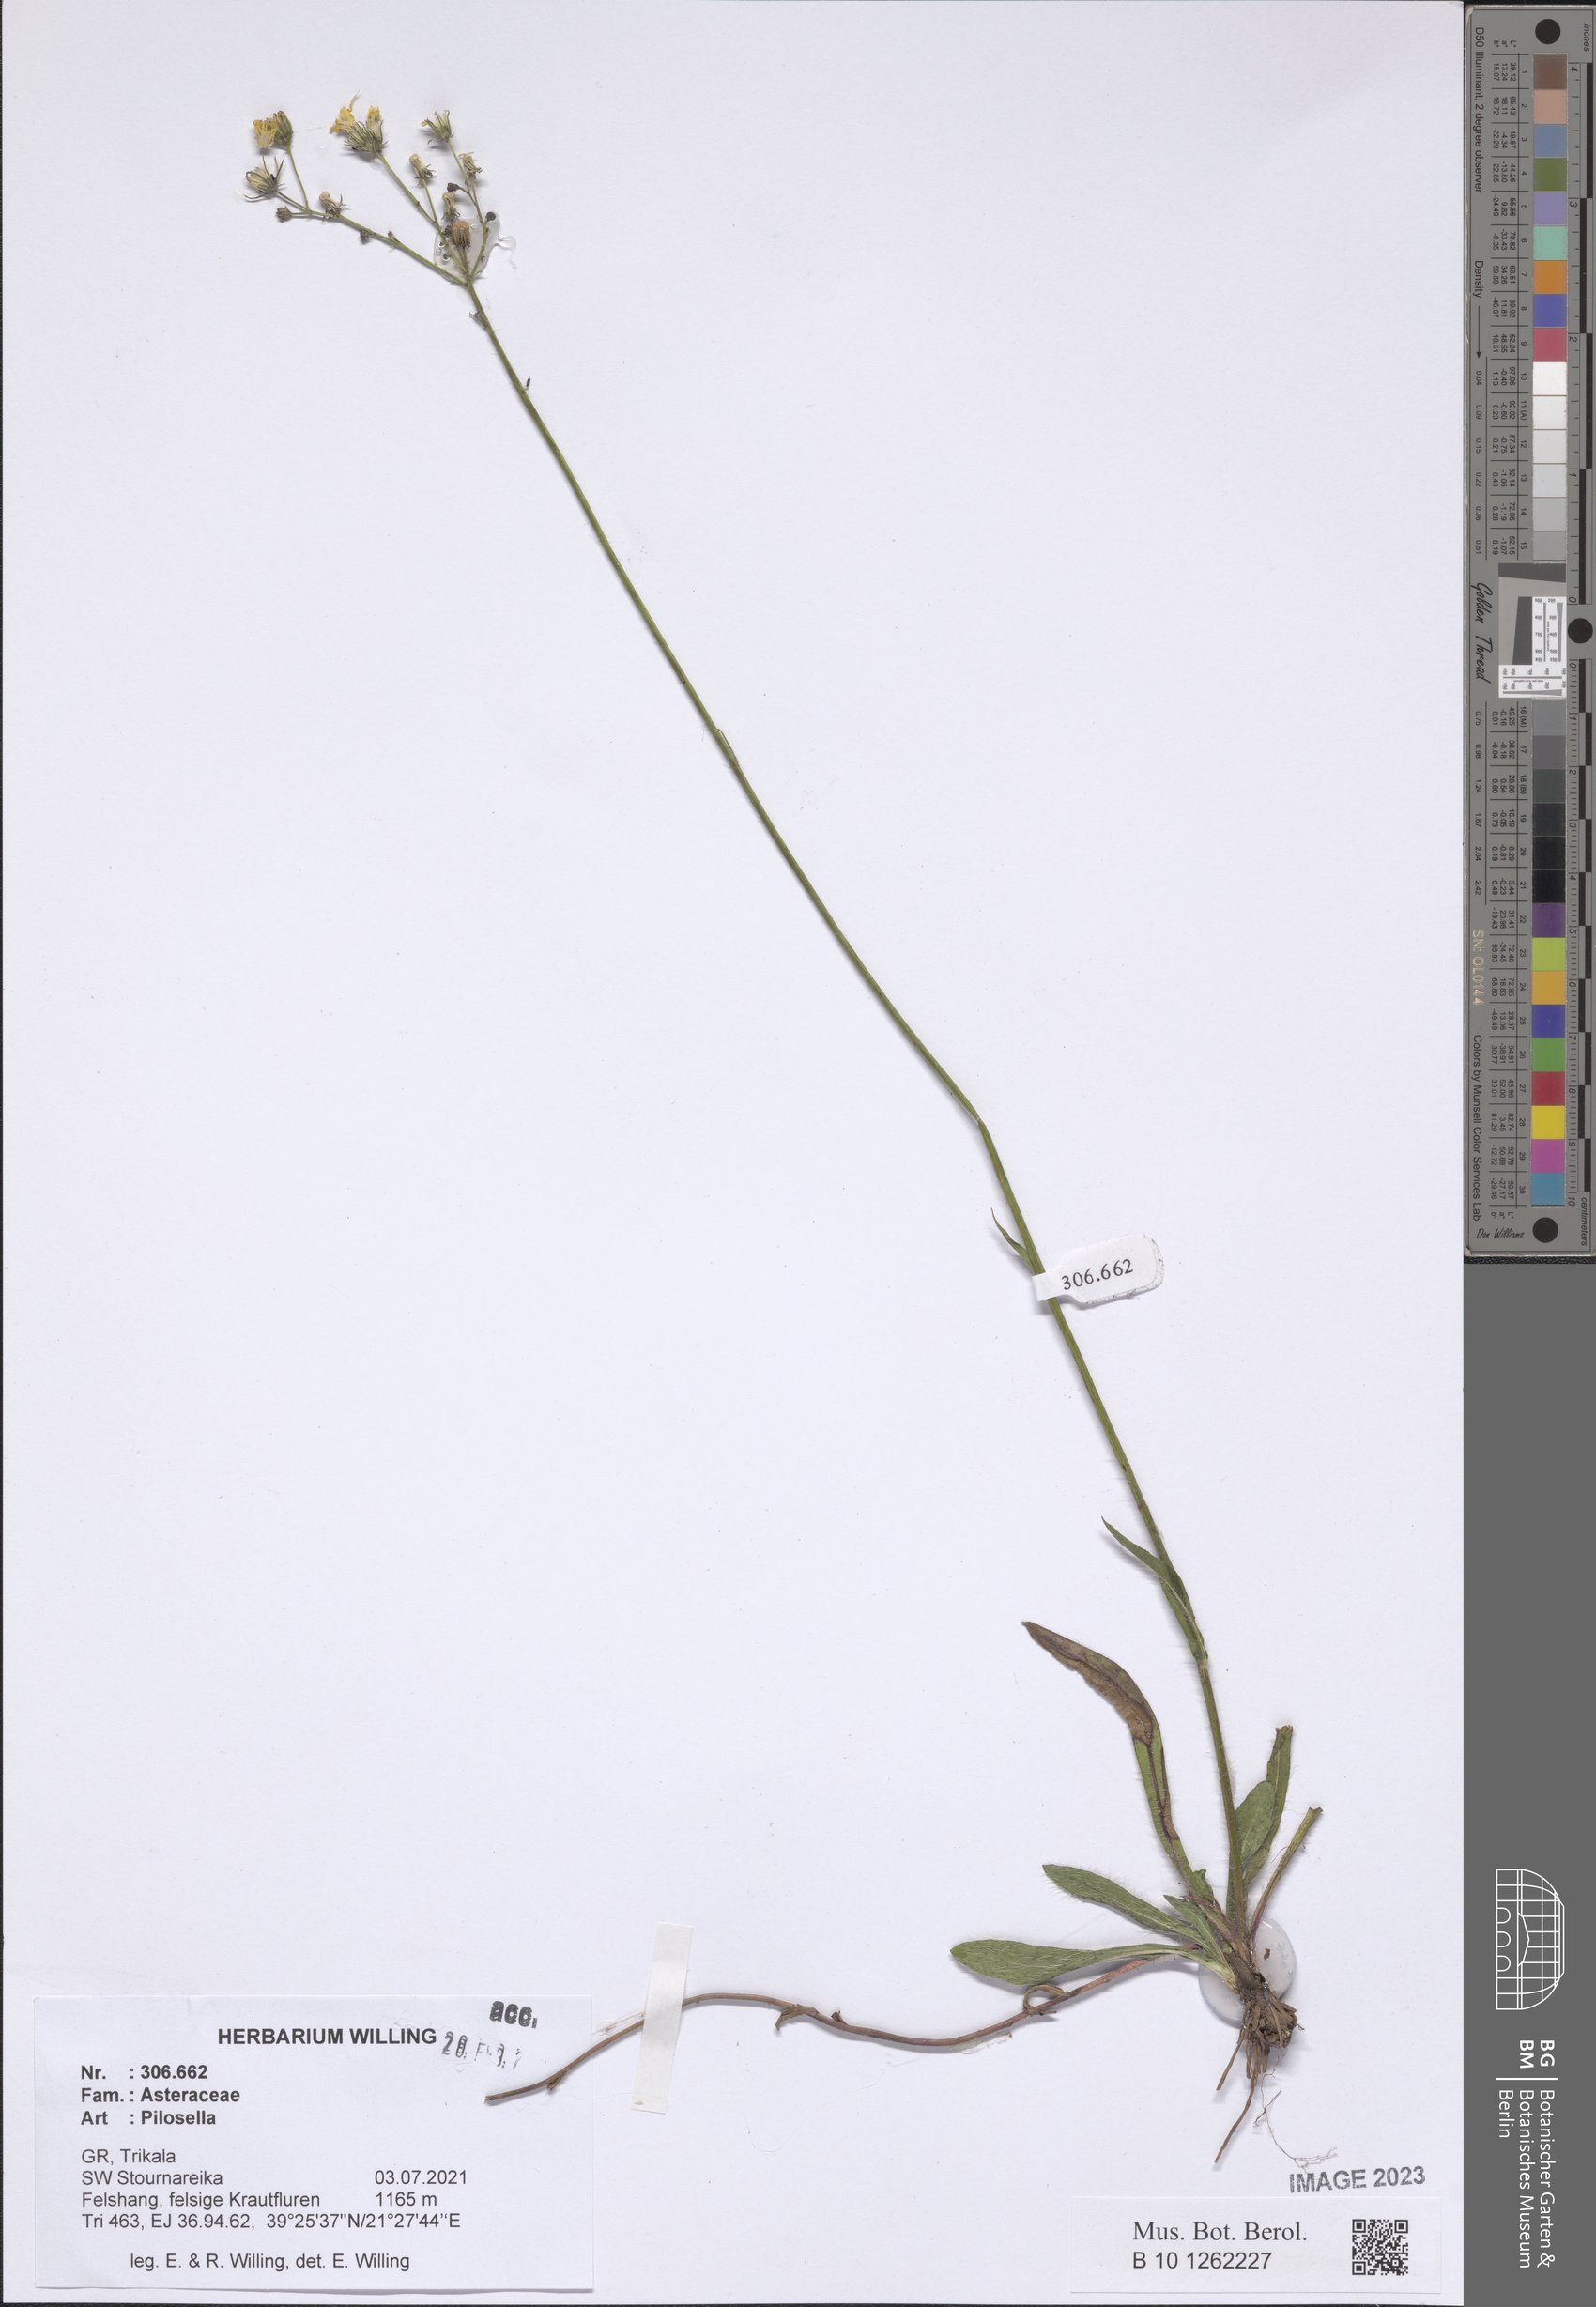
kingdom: Plantae
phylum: Tracheophyta
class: Magnoliopsida
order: Asterales
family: Asteraceae
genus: Pilosella
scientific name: Pilosella
